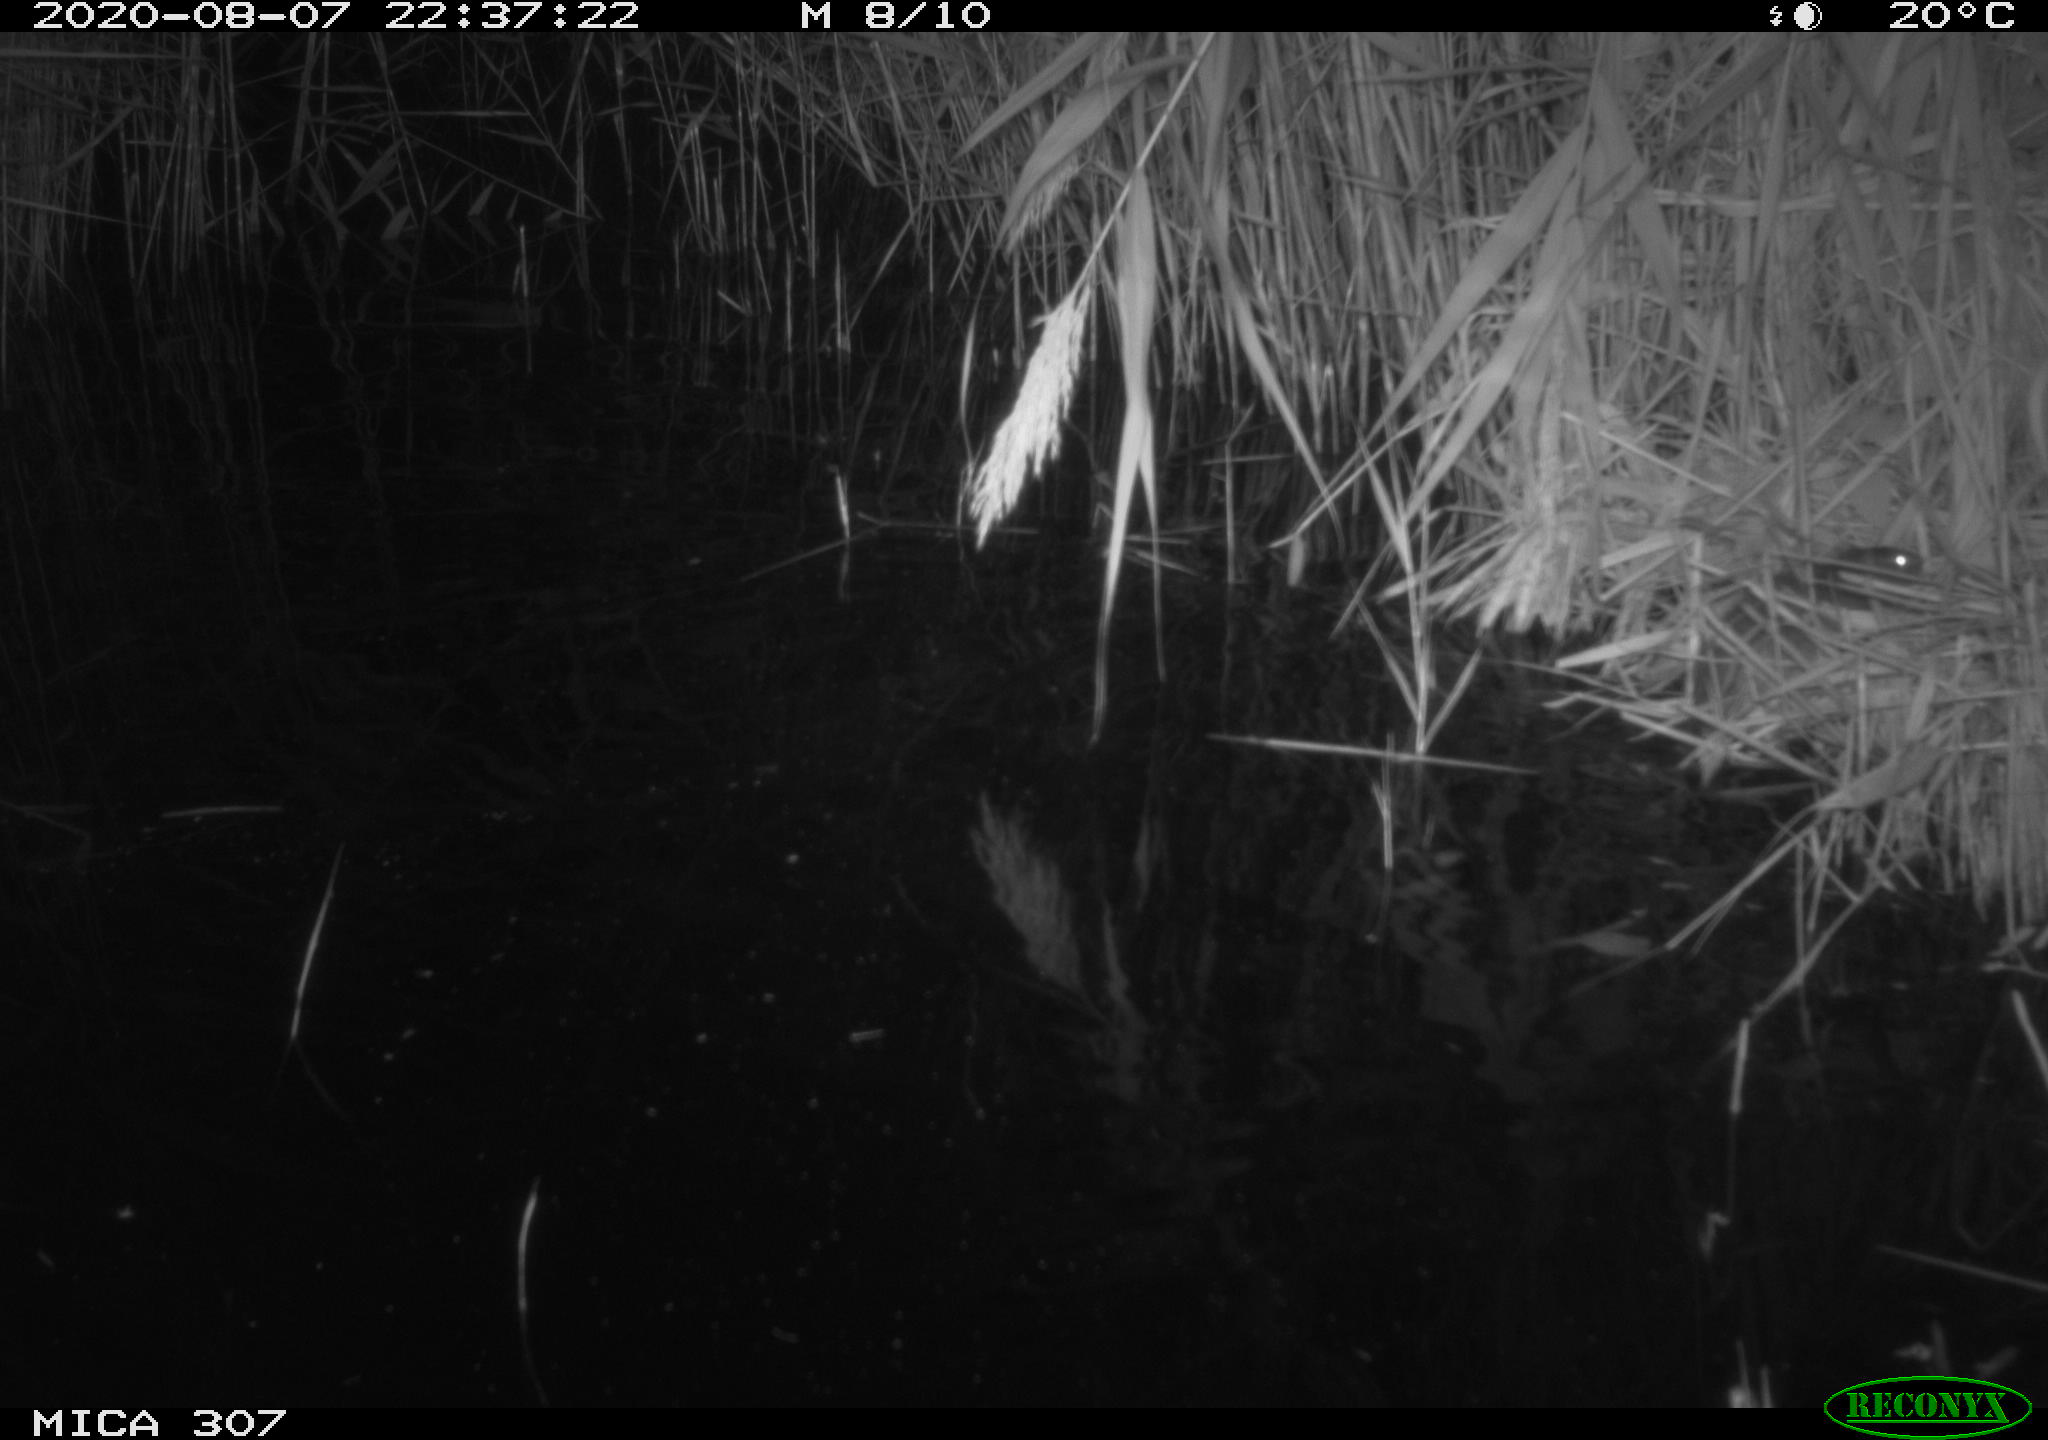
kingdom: Animalia
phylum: Chordata
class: Mammalia
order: Rodentia
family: Muridae
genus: Rattus
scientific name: Rattus norvegicus
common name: Brown rat
